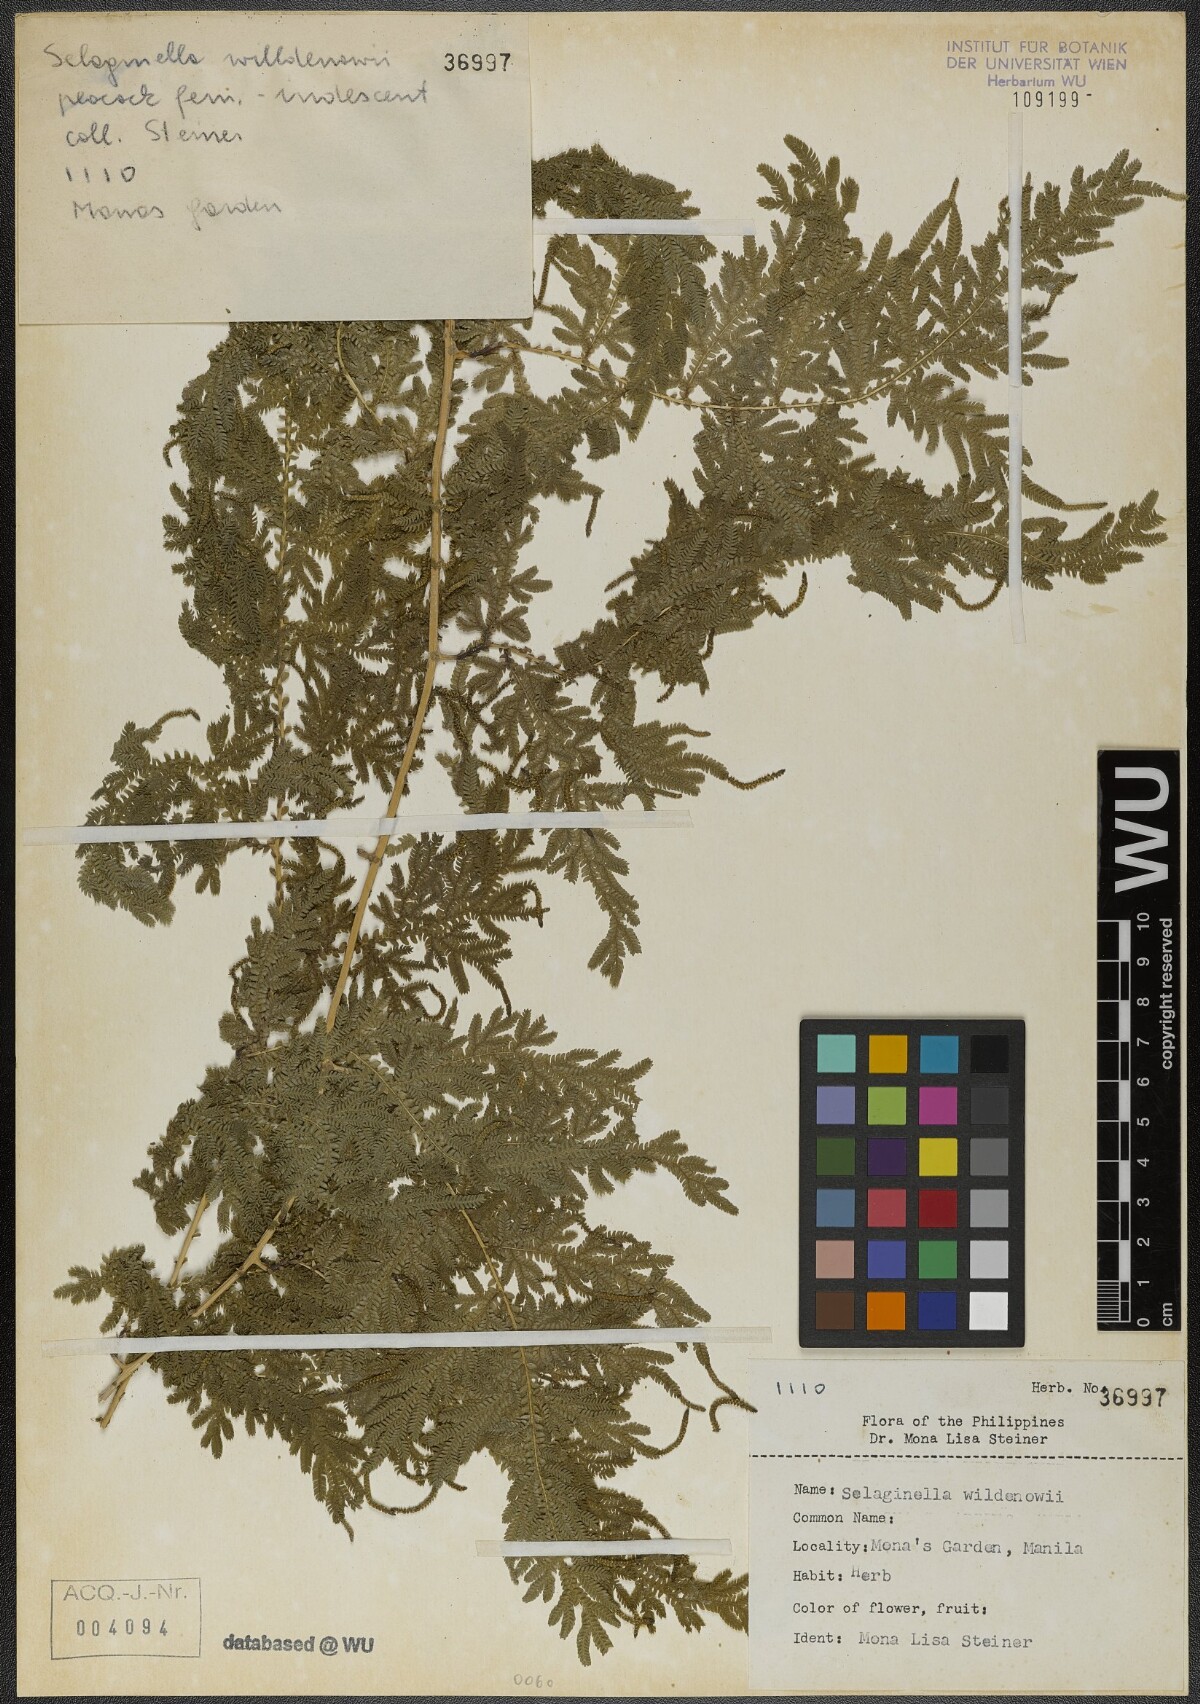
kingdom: Plantae
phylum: Tracheophyta
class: Lycopodiopsida
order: Selaginellales
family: Selaginellaceae
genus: Selaginella
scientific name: Selaginella willdenowii
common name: Willdenow's spikemoss
